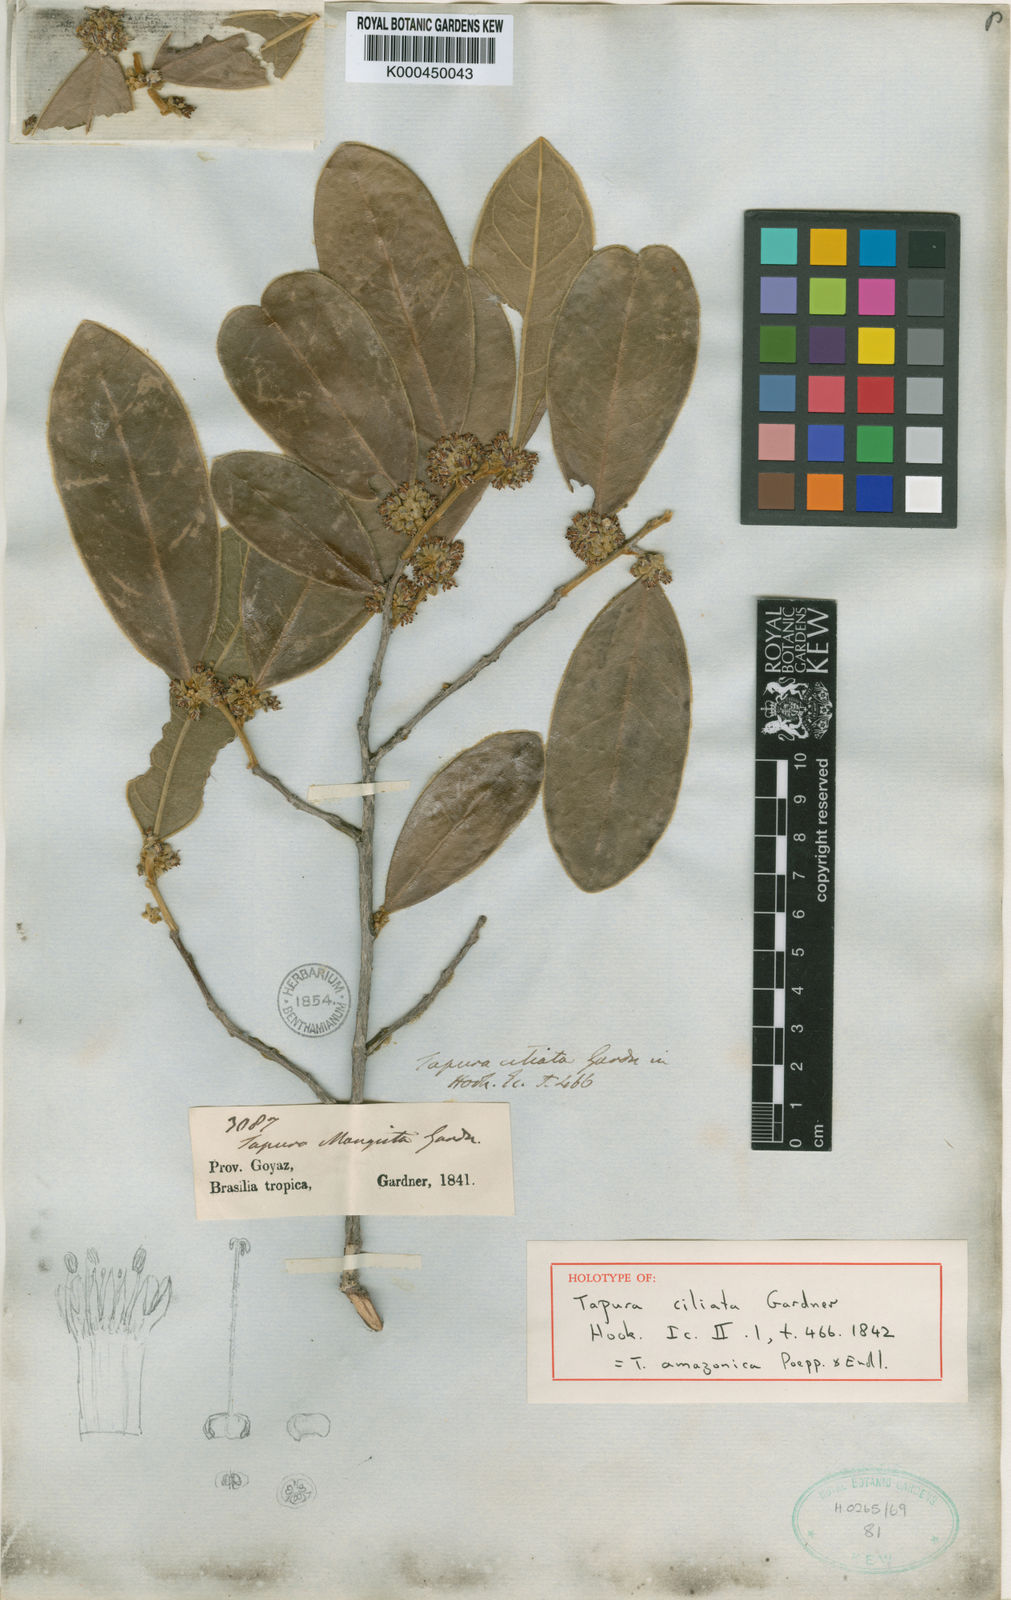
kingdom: Plantae
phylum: Tracheophyta
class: Magnoliopsida
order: Malpighiales
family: Dichapetalaceae
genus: Tapura
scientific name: Tapura amazonica
